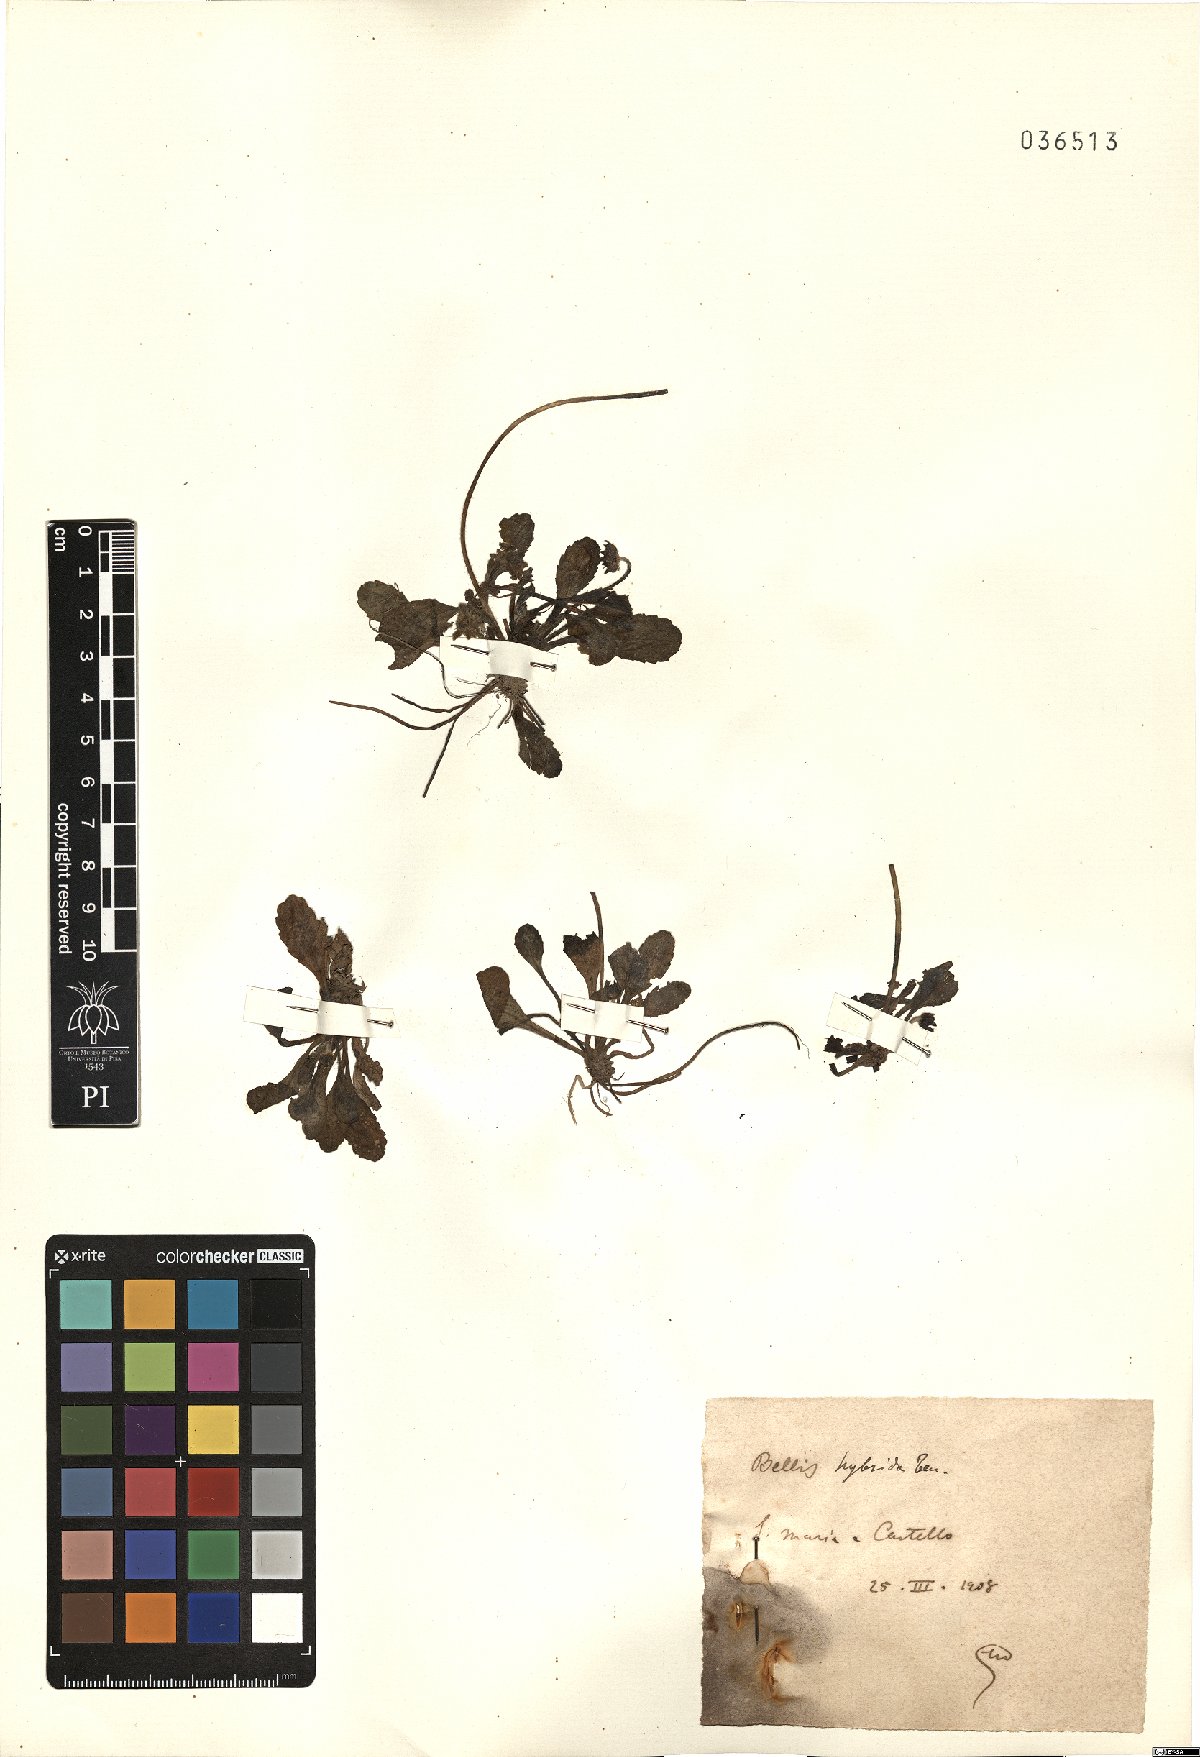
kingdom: Plantae
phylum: Tracheophyta
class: Magnoliopsida
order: Asterales
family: Asteraceae
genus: Bellis
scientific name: Bellis perennis
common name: Lawndaisy
